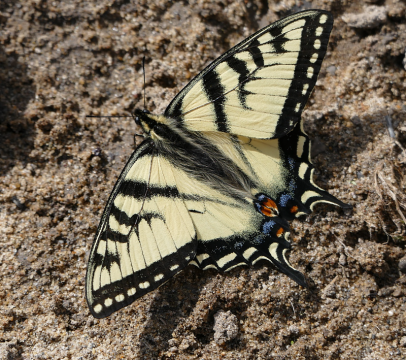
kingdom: Animalia
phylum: Arthropoda
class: Insecta
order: Lepidoptera
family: Papilionidae
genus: Pterourus
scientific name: Pterourus canadensis
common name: Canadian Tiger Swallowtail
